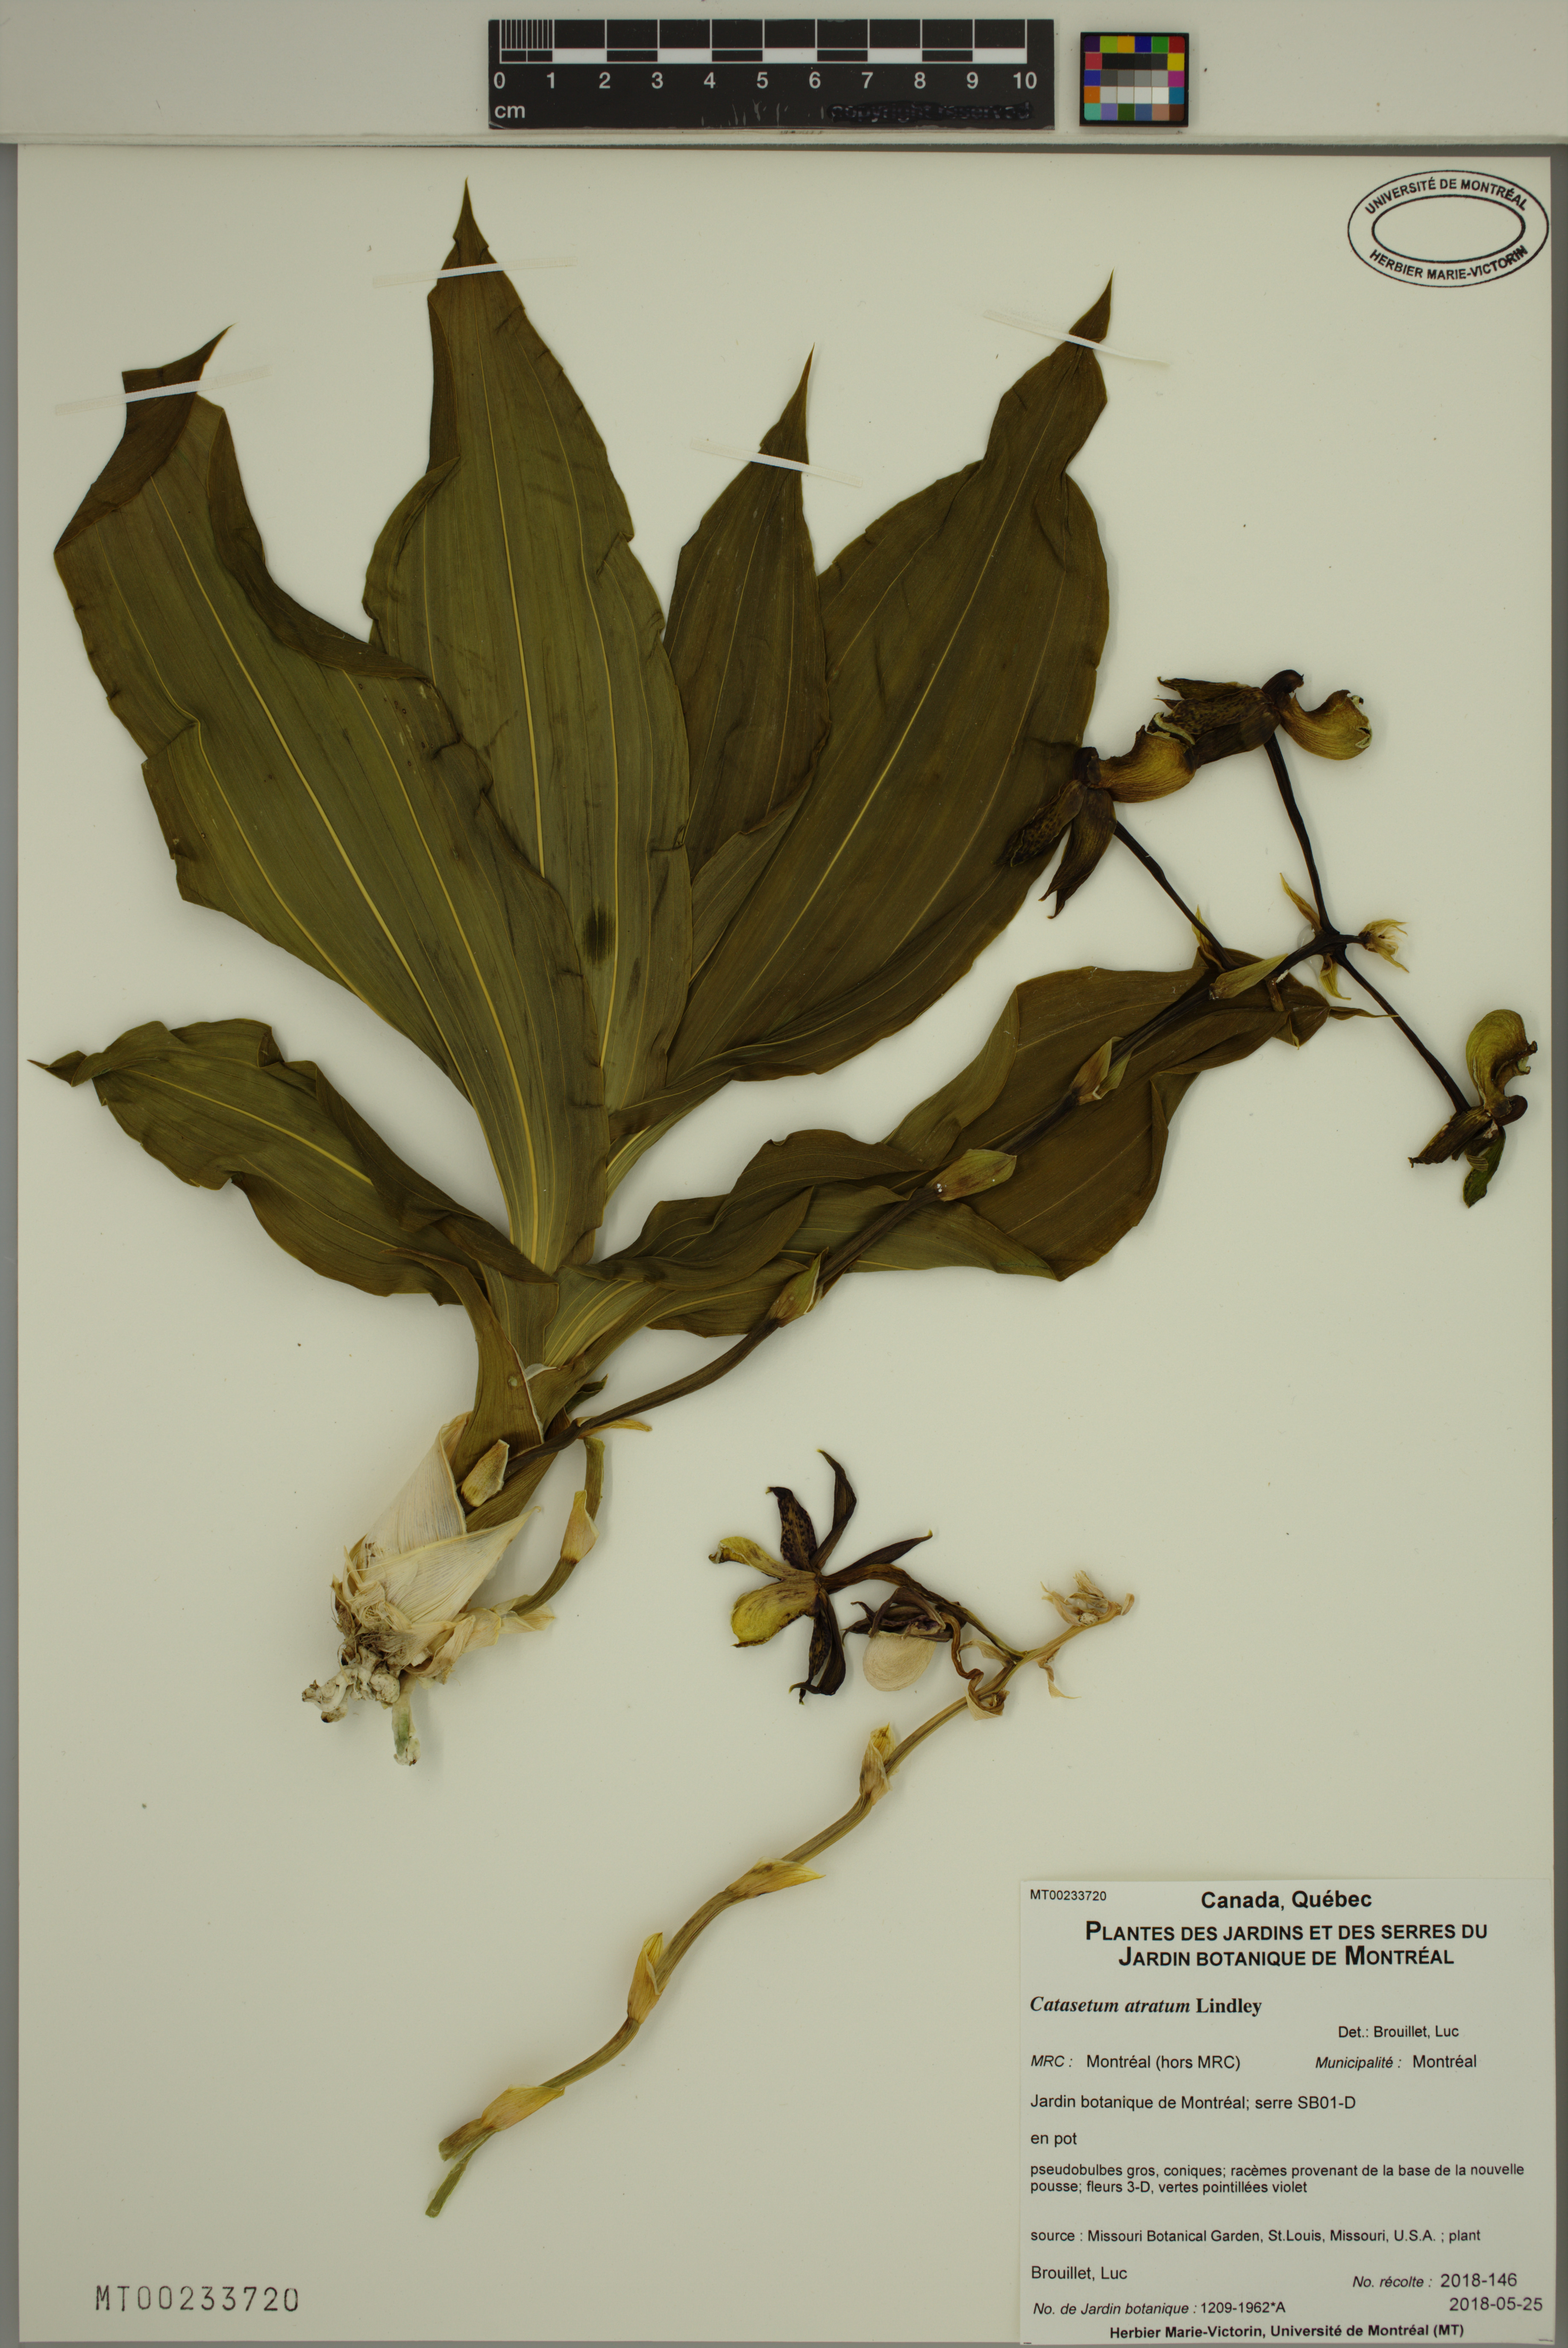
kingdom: Plantae
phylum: Tracheophyta
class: Liliopsida
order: Asparagales
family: Orchidaceae
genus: Catasetum
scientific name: Catasetum atratum
